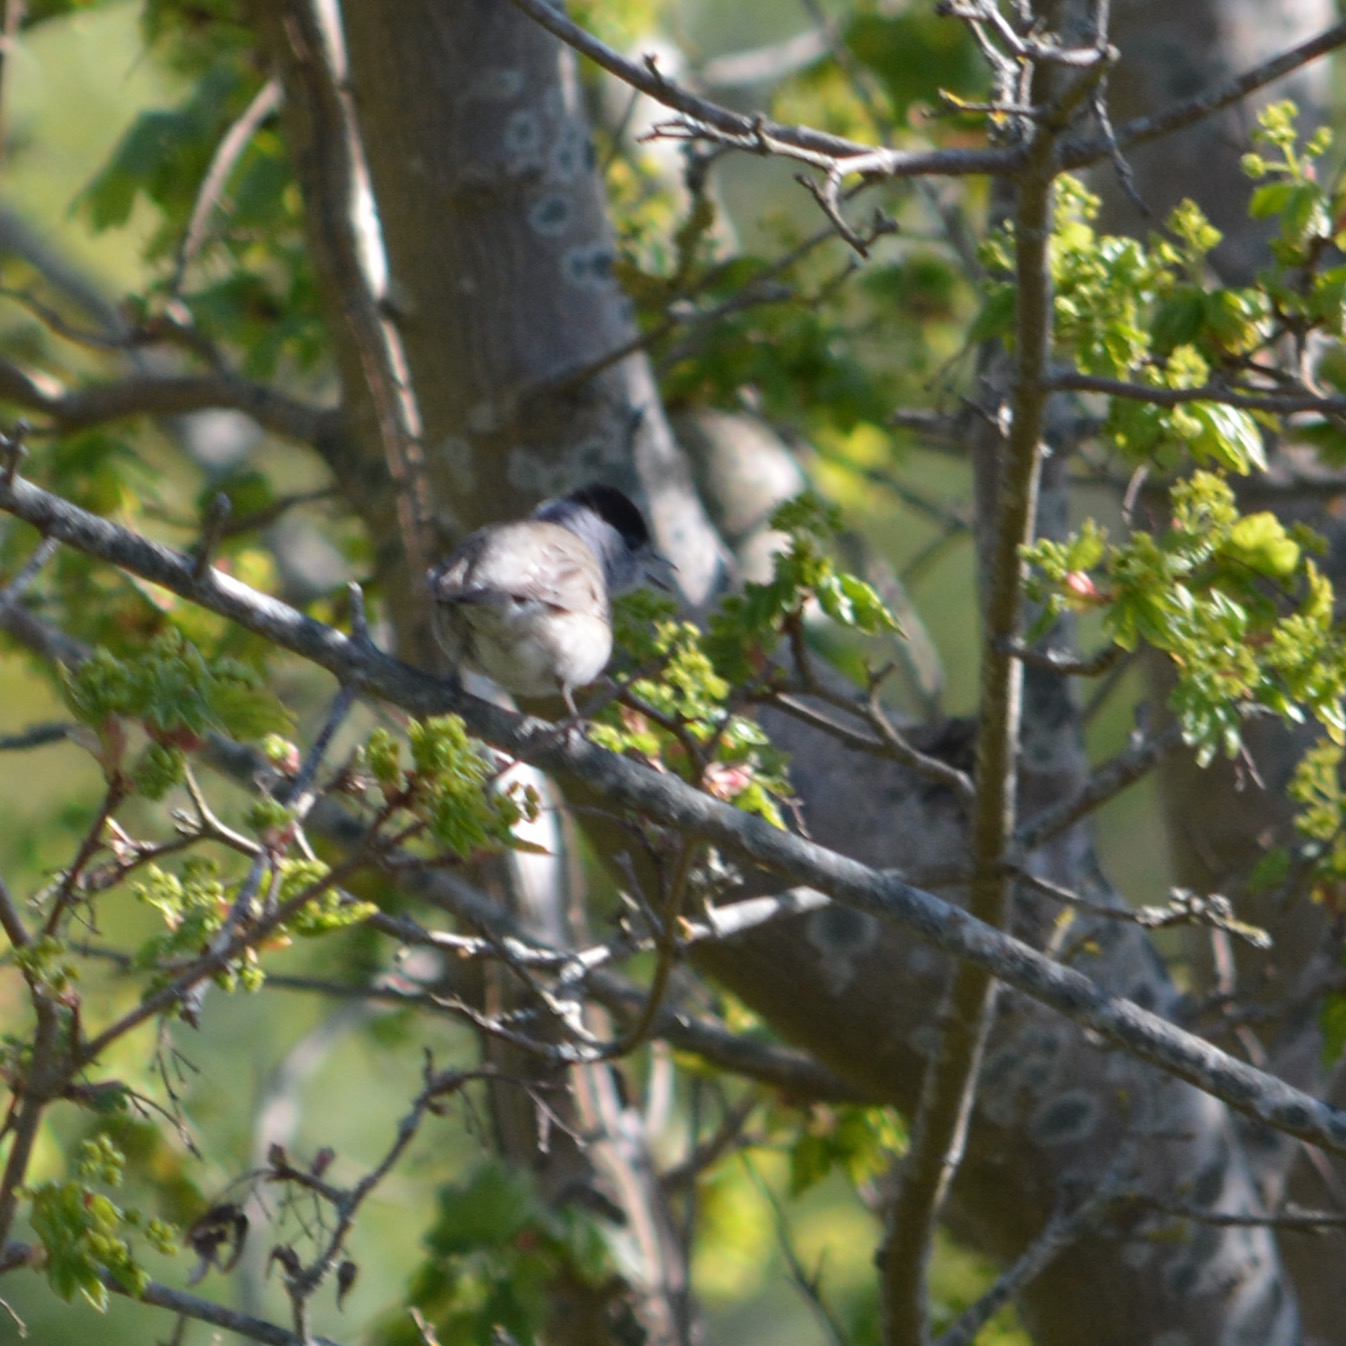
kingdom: Animalia
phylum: Chordata
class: Aves
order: Passeriformes
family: Sylviidae
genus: Sylvia
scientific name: Sylvia atricapilla
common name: Munk
